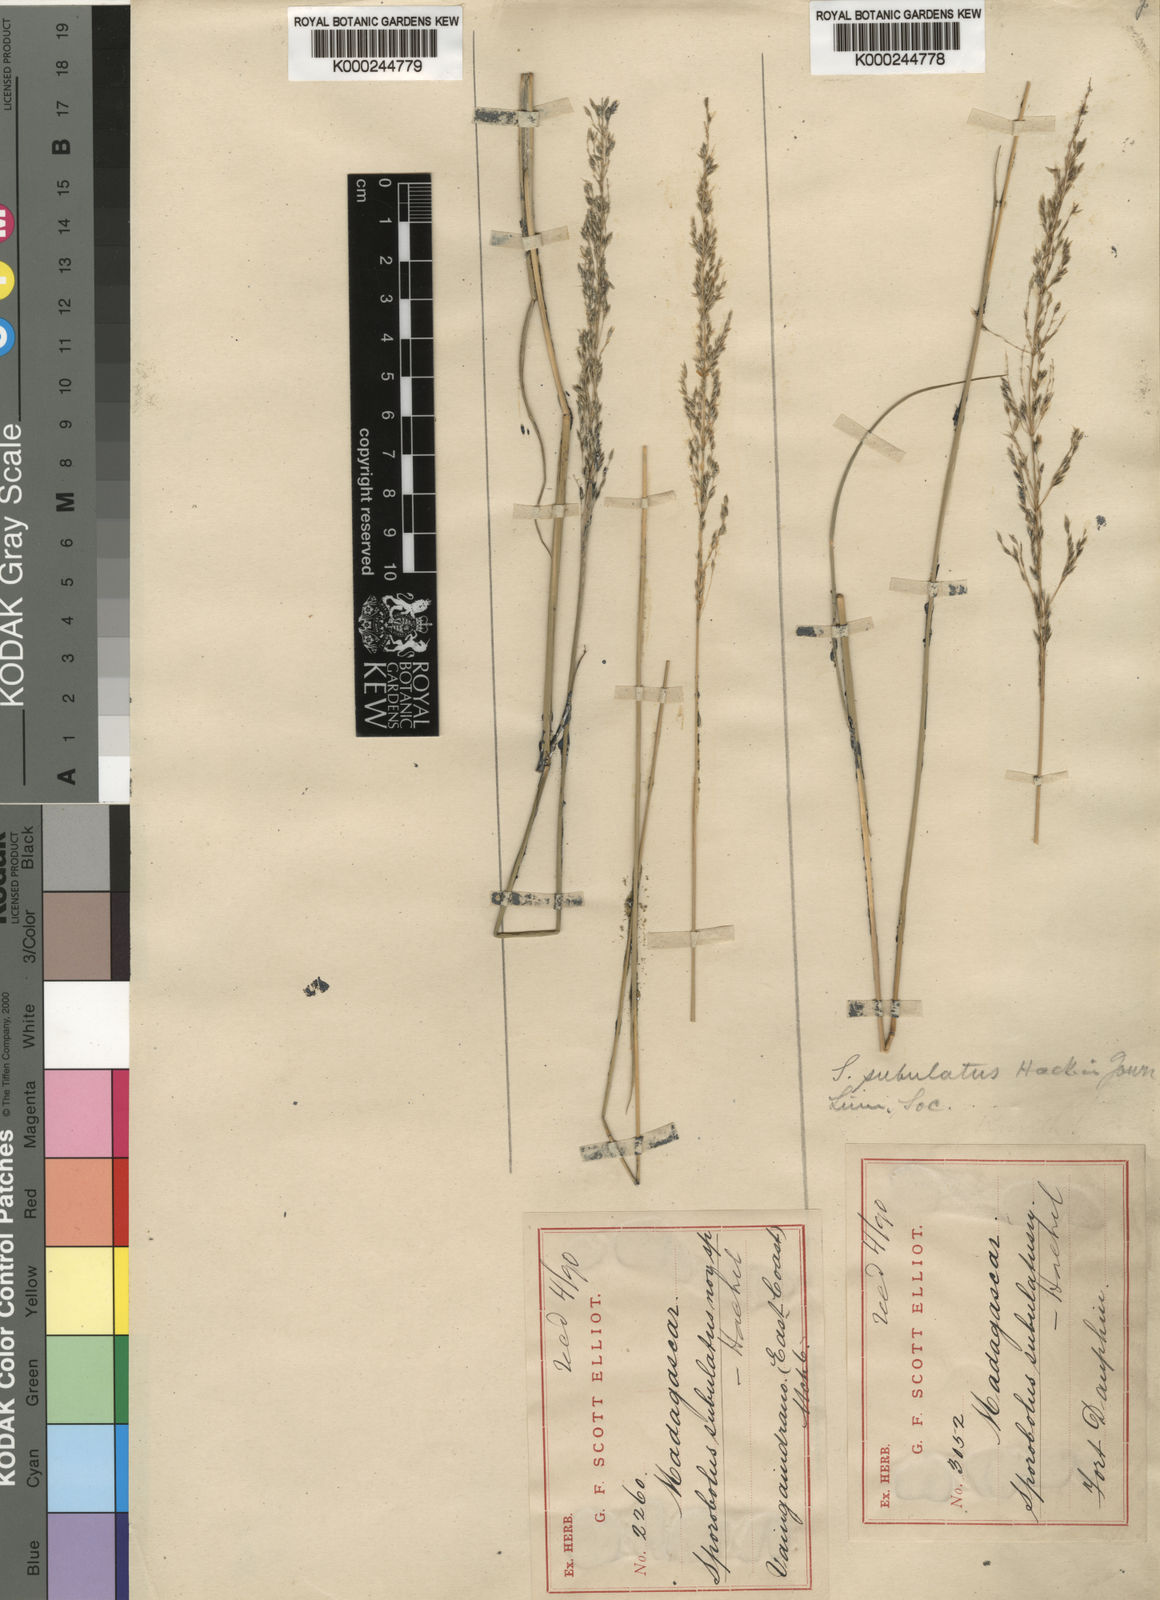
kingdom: Plantae
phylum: Tracheophyta
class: Liliopsida
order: Poales
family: Poaceae
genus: Sporobolus
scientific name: Sporobolus subulatus
